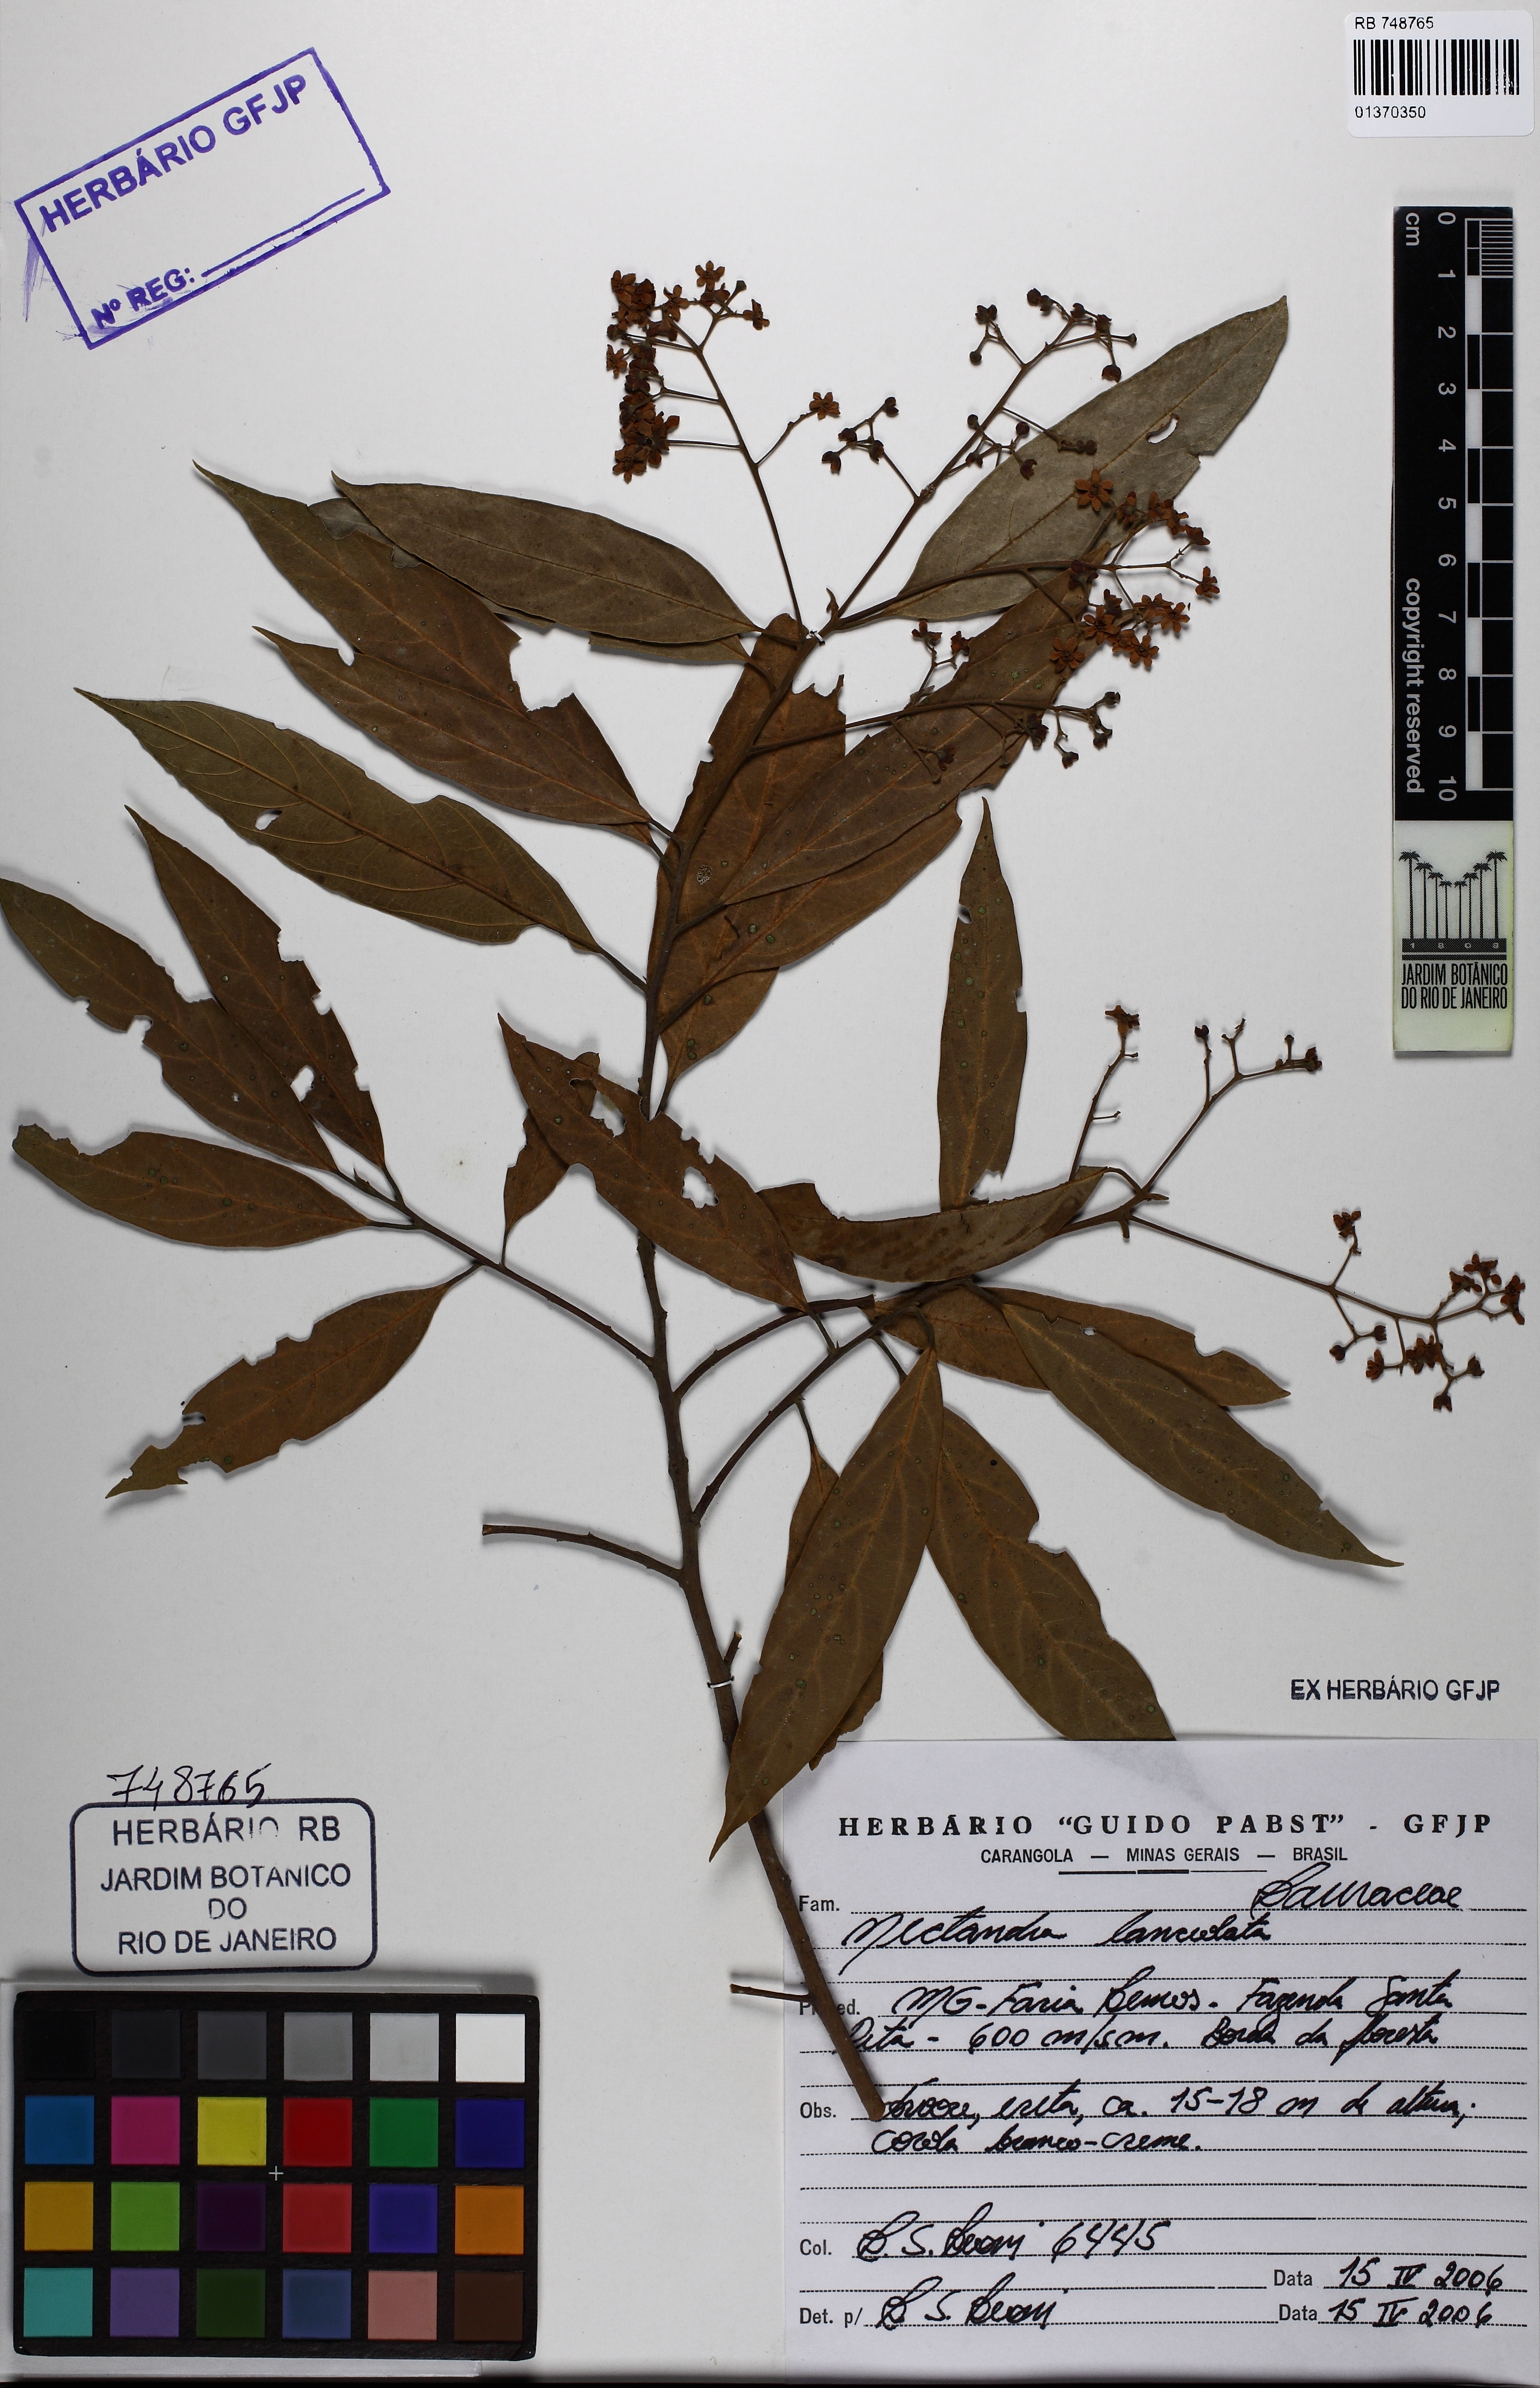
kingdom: Plantae
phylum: Tracheophyta
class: Magnoliopsida
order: Laurales
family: Lauraceae
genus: Nectandra
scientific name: Nectandra lanceolata
